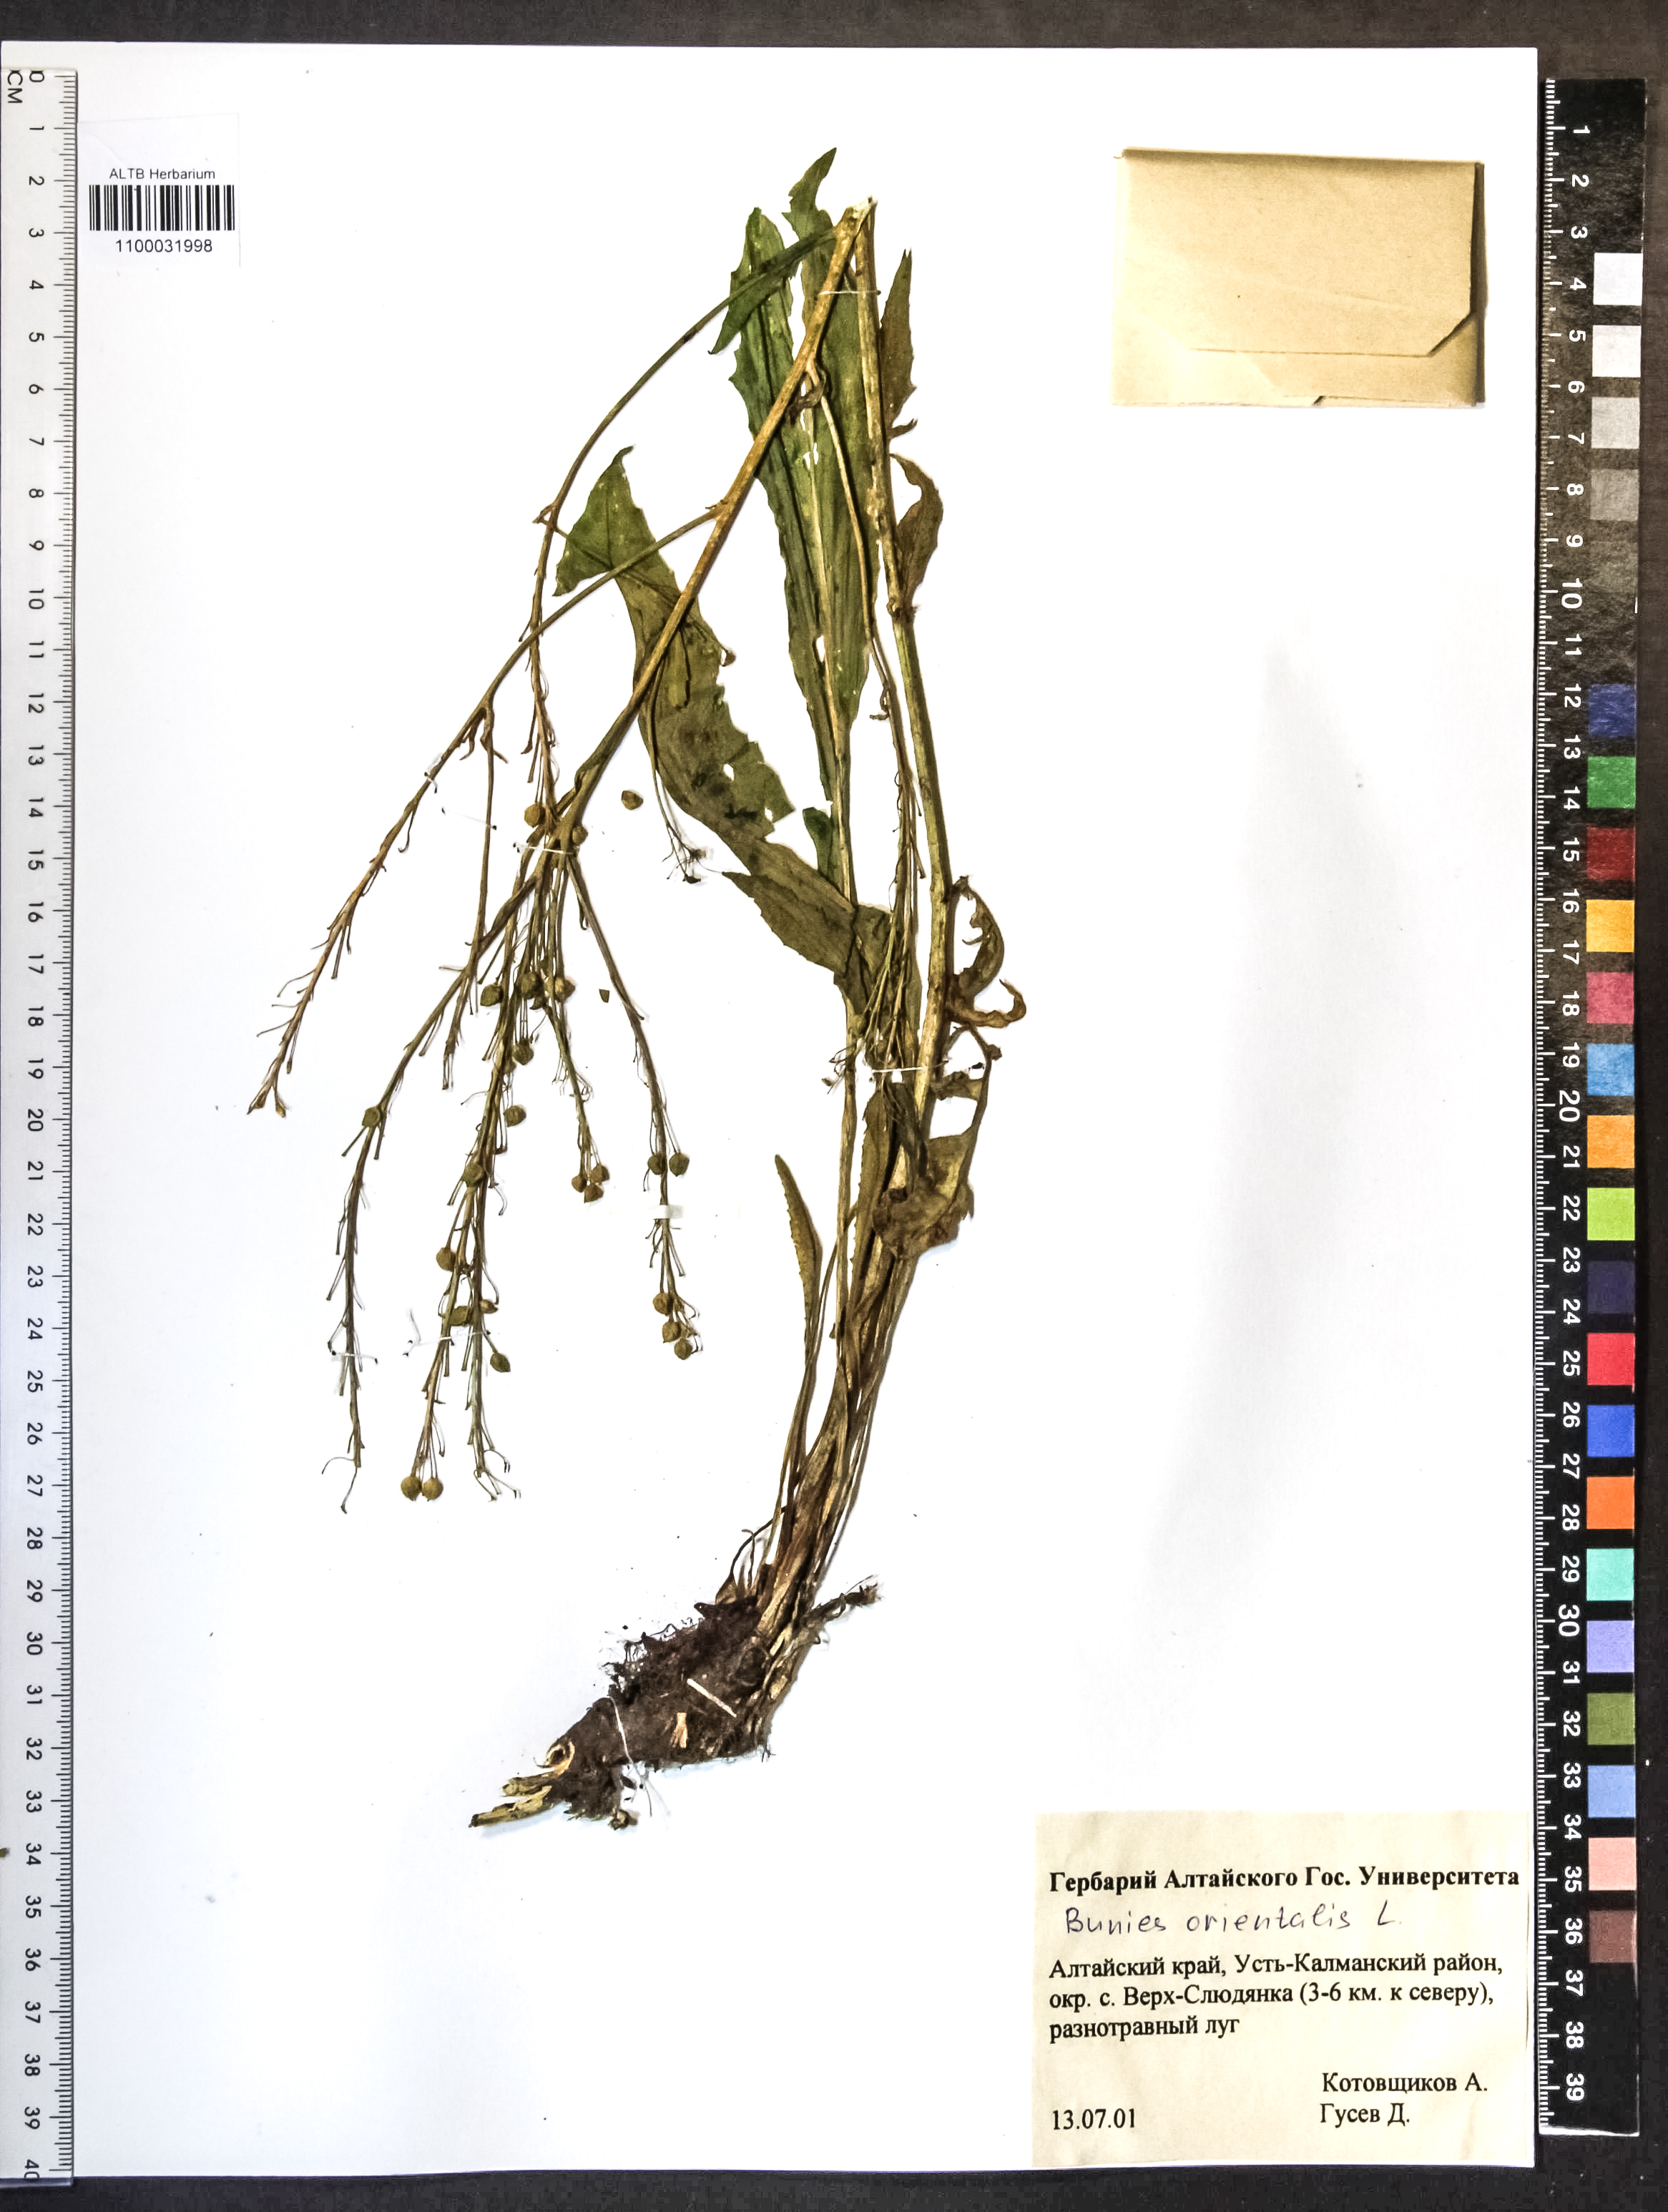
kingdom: Plantae
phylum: Tracheophyta
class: Magnoliopsida
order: Brassicales
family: Brassicaceae
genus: Bunias
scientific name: Bunias orientalis
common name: Warty-cabbage
